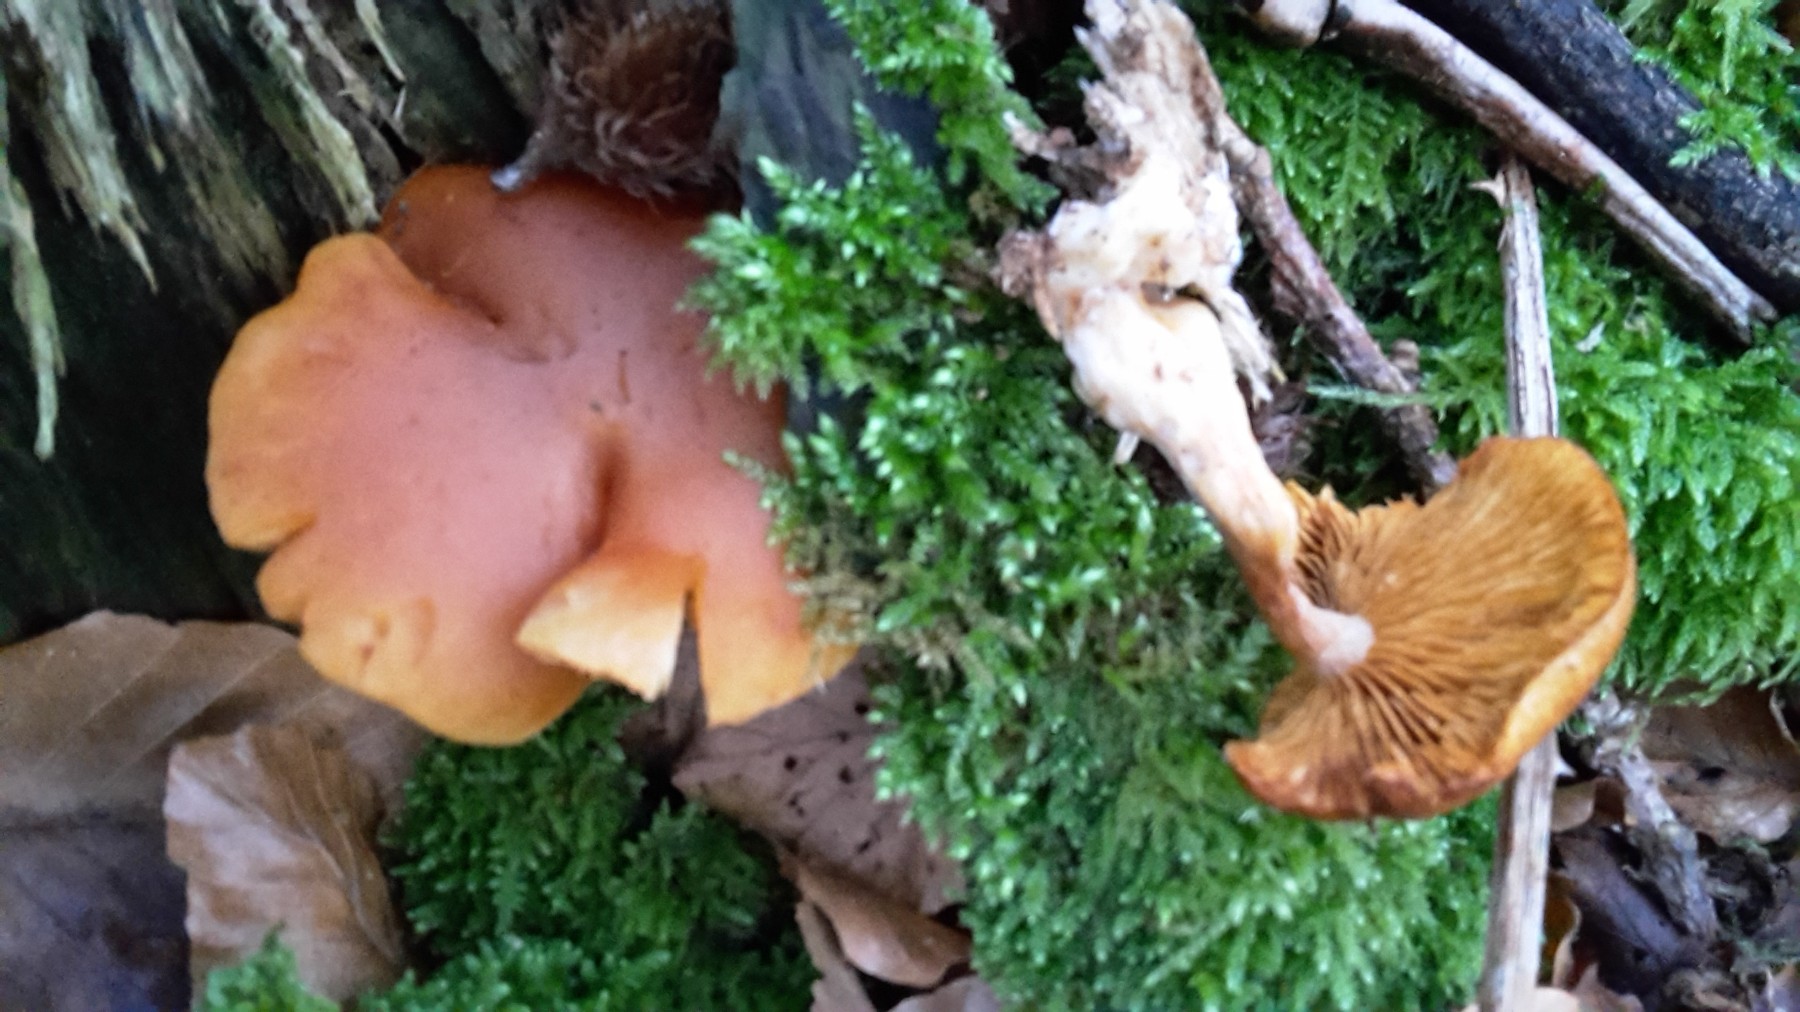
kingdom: Fungi
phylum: Basidiomycota
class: Agaricomycetes
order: Agaricales
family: Hymenogastraceae
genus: Gymnopilus
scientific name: Gymnopilus penetrans
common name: plettet flammehat
